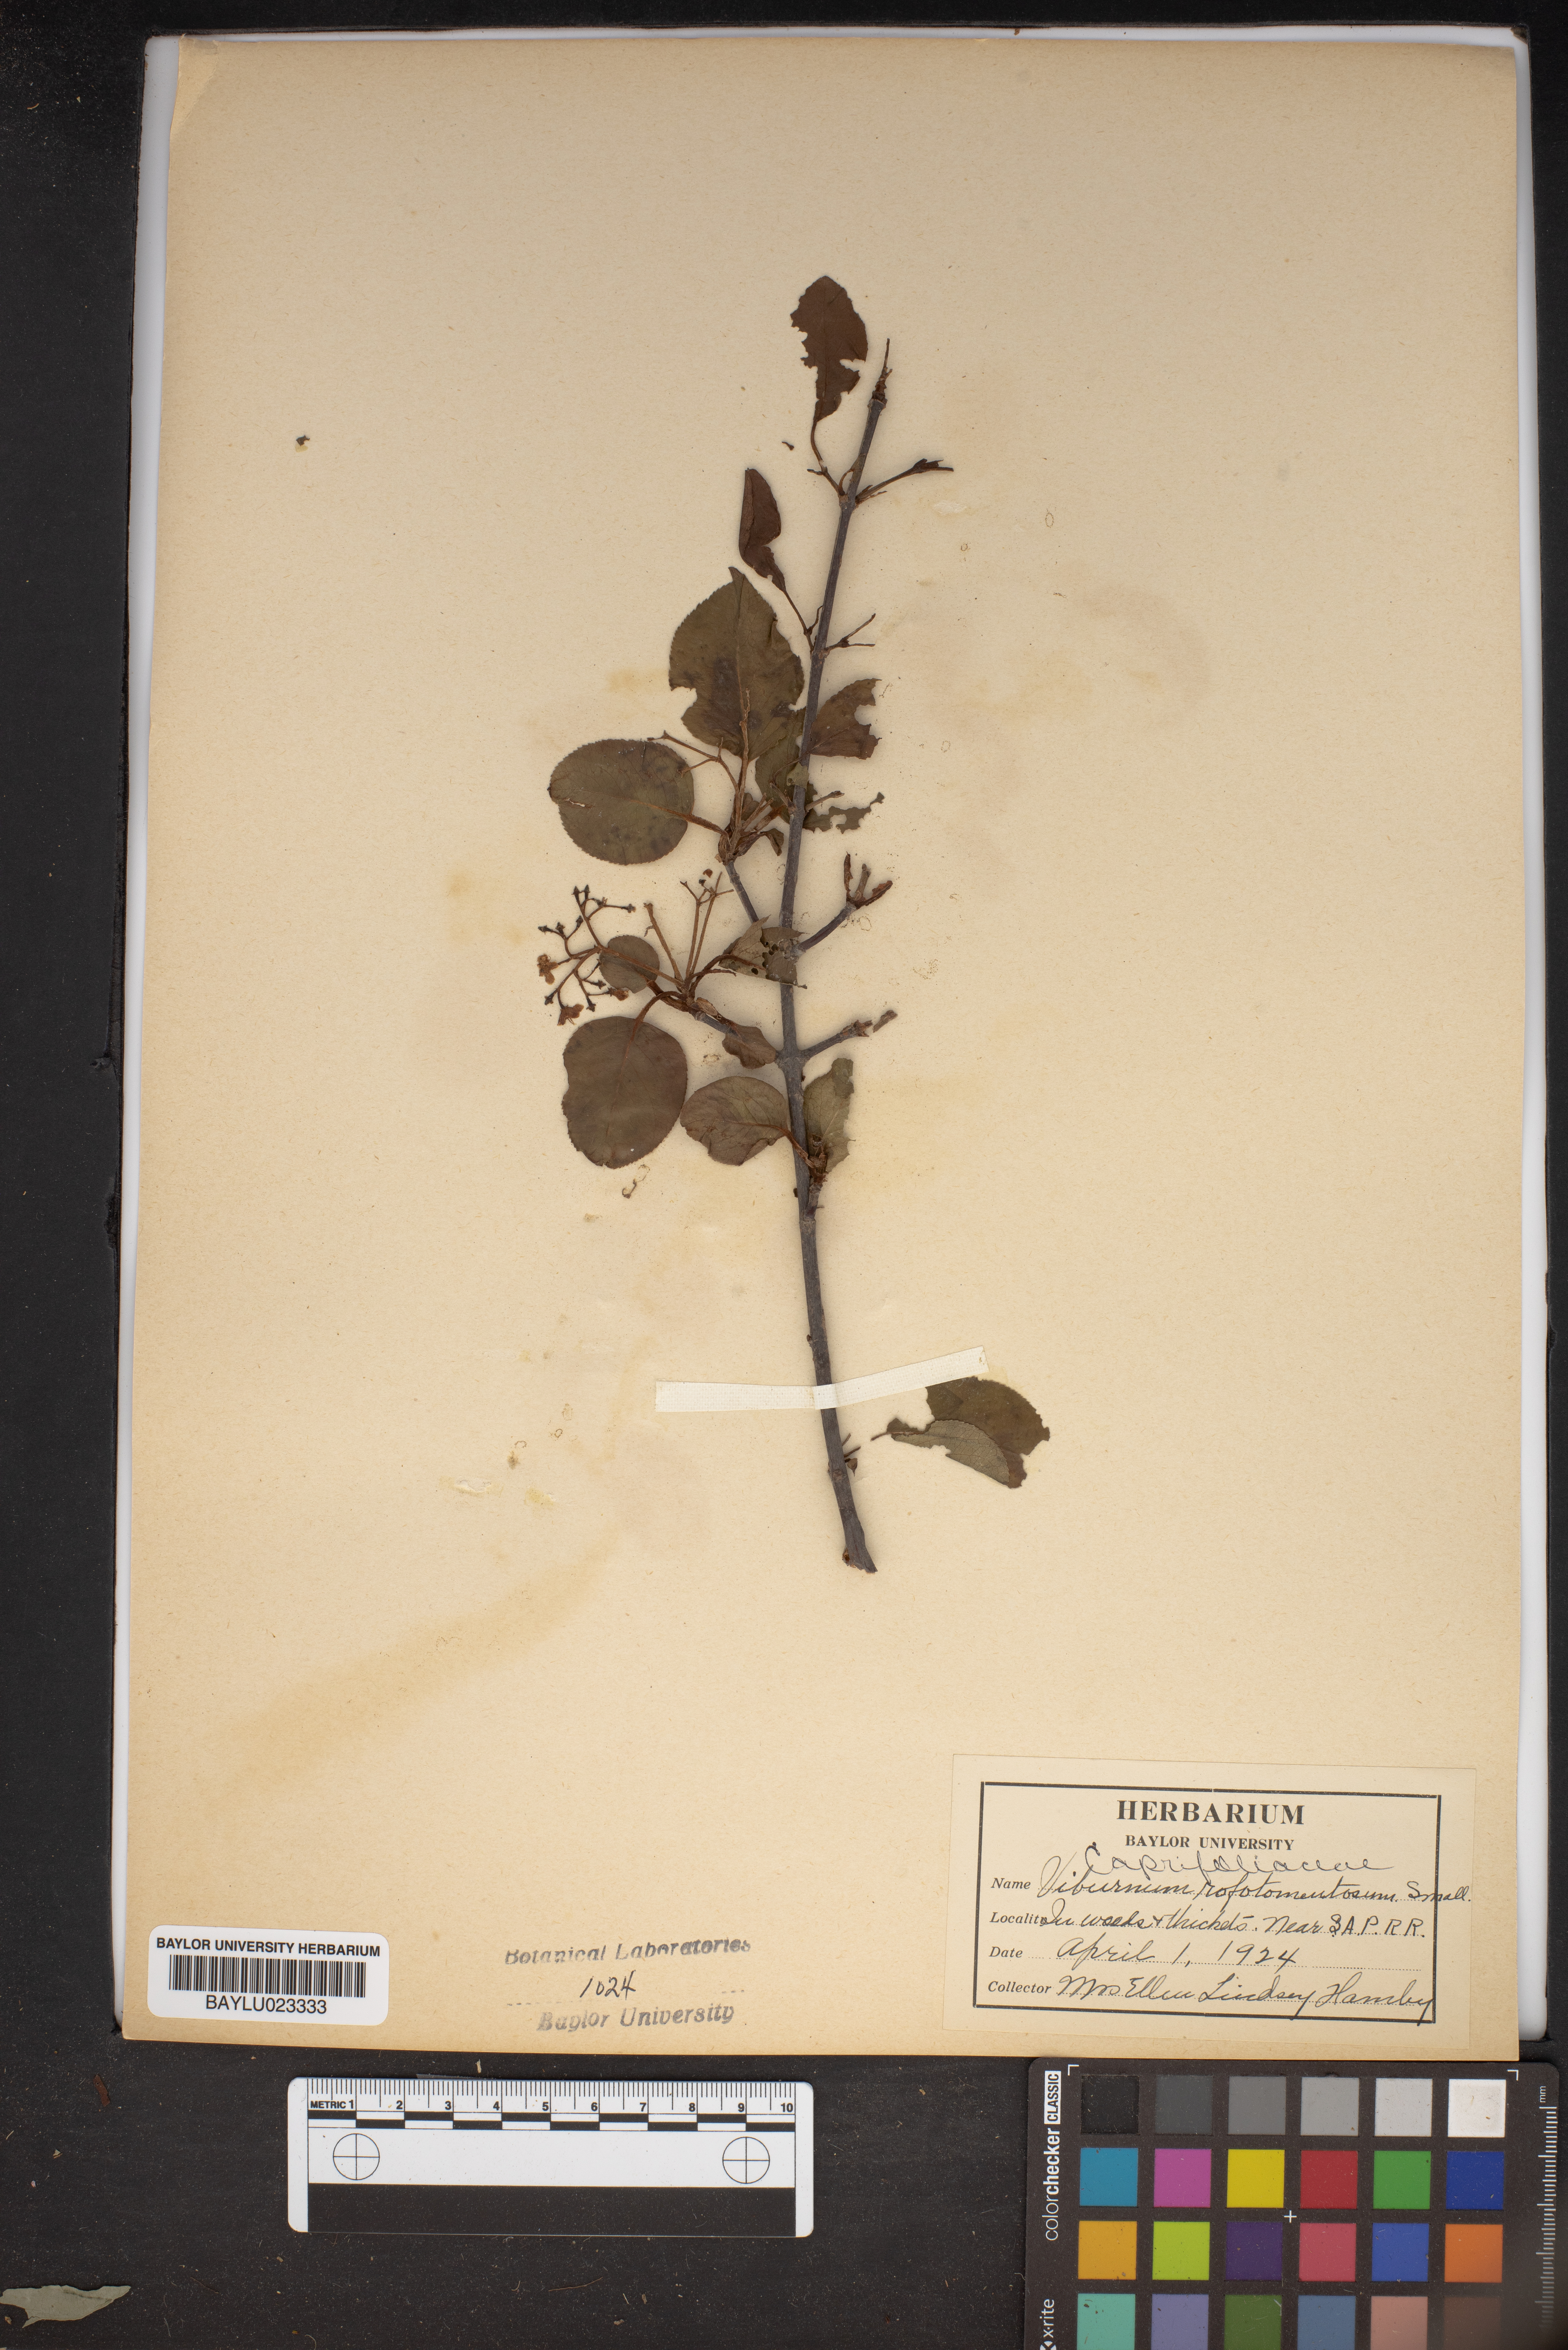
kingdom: Plantae
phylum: Tracheophyta
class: Magnoliopsida
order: Dipsacales
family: Viburnaceae
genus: Viburnum
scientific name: Viburnum rufidulum
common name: Blue haw
